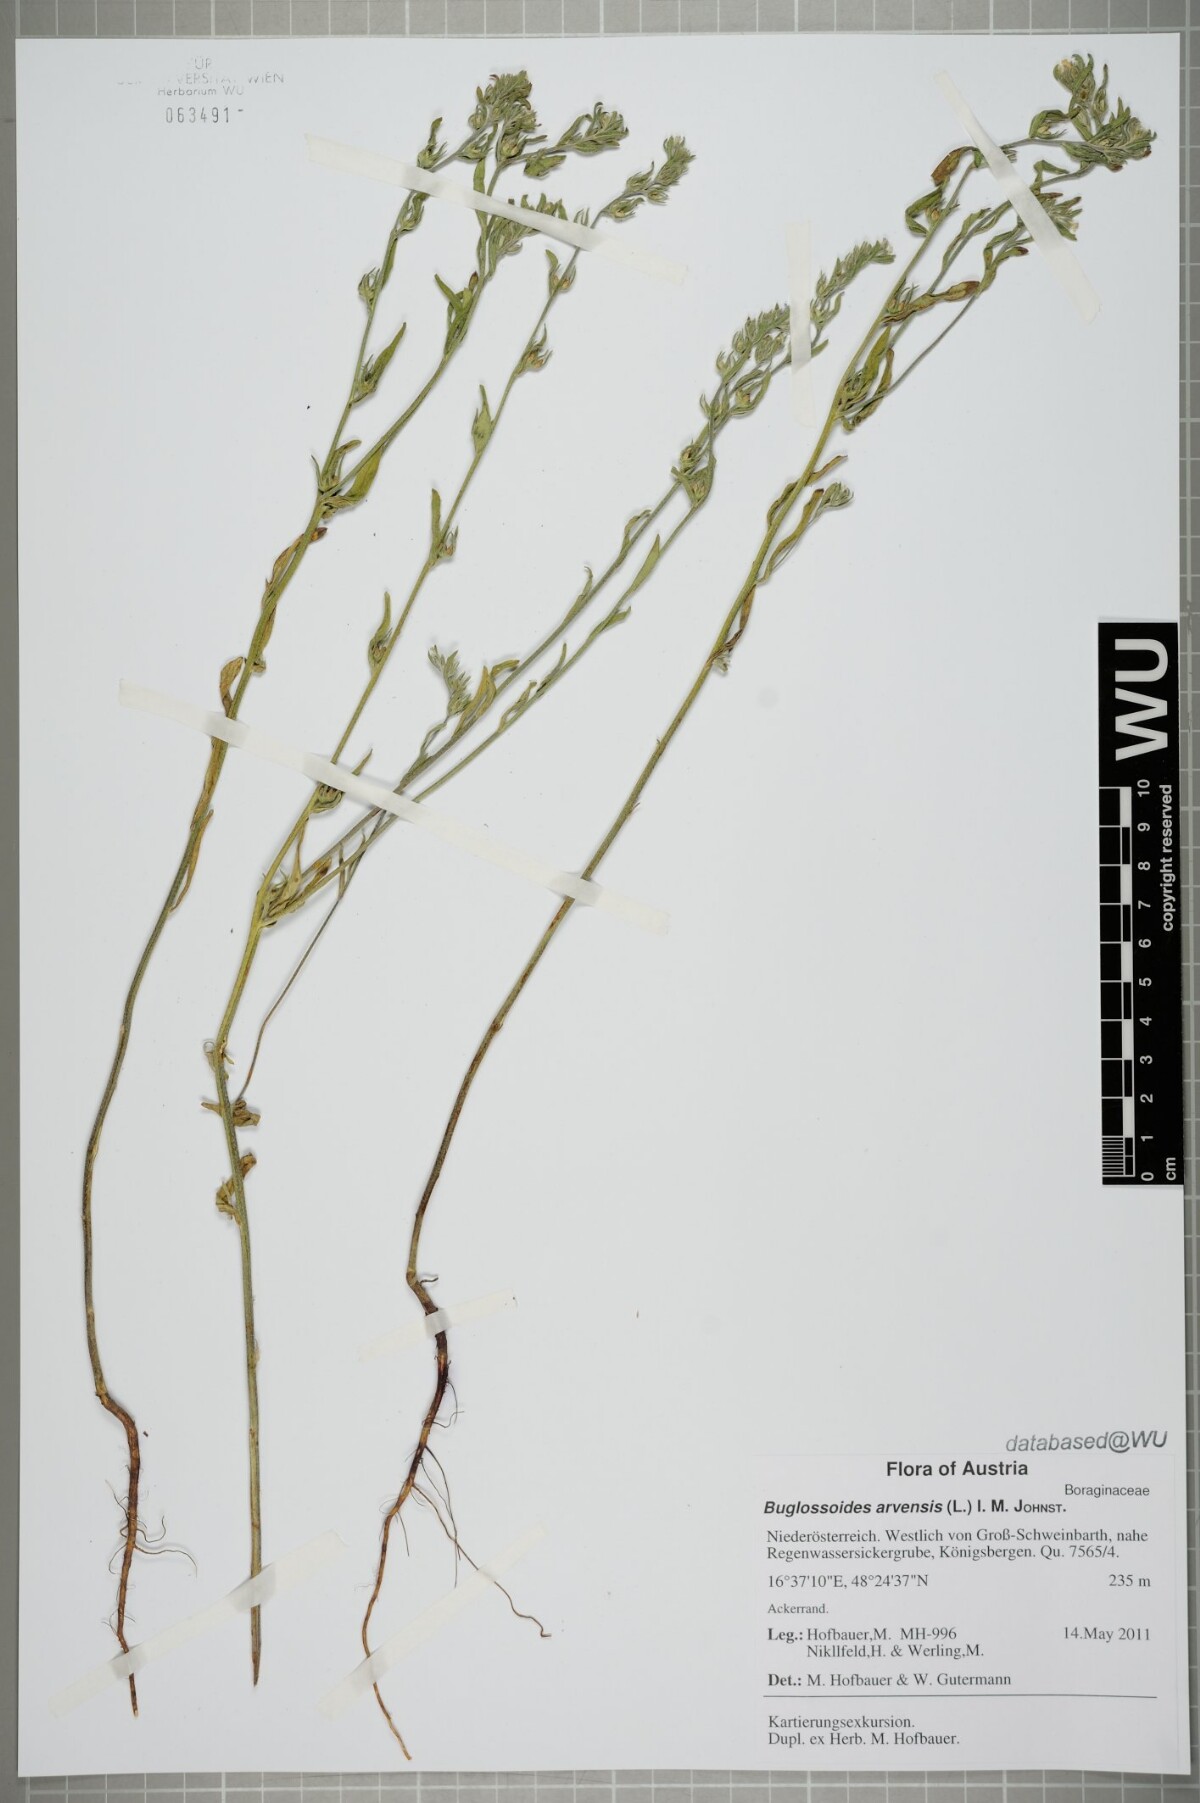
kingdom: Plantae
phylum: Tracheophyta
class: Magnoliopsida
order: Boraginales
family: Boraginaceae
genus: Buglossoides
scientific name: Buglossoides arvensis
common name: Corn gromwell
